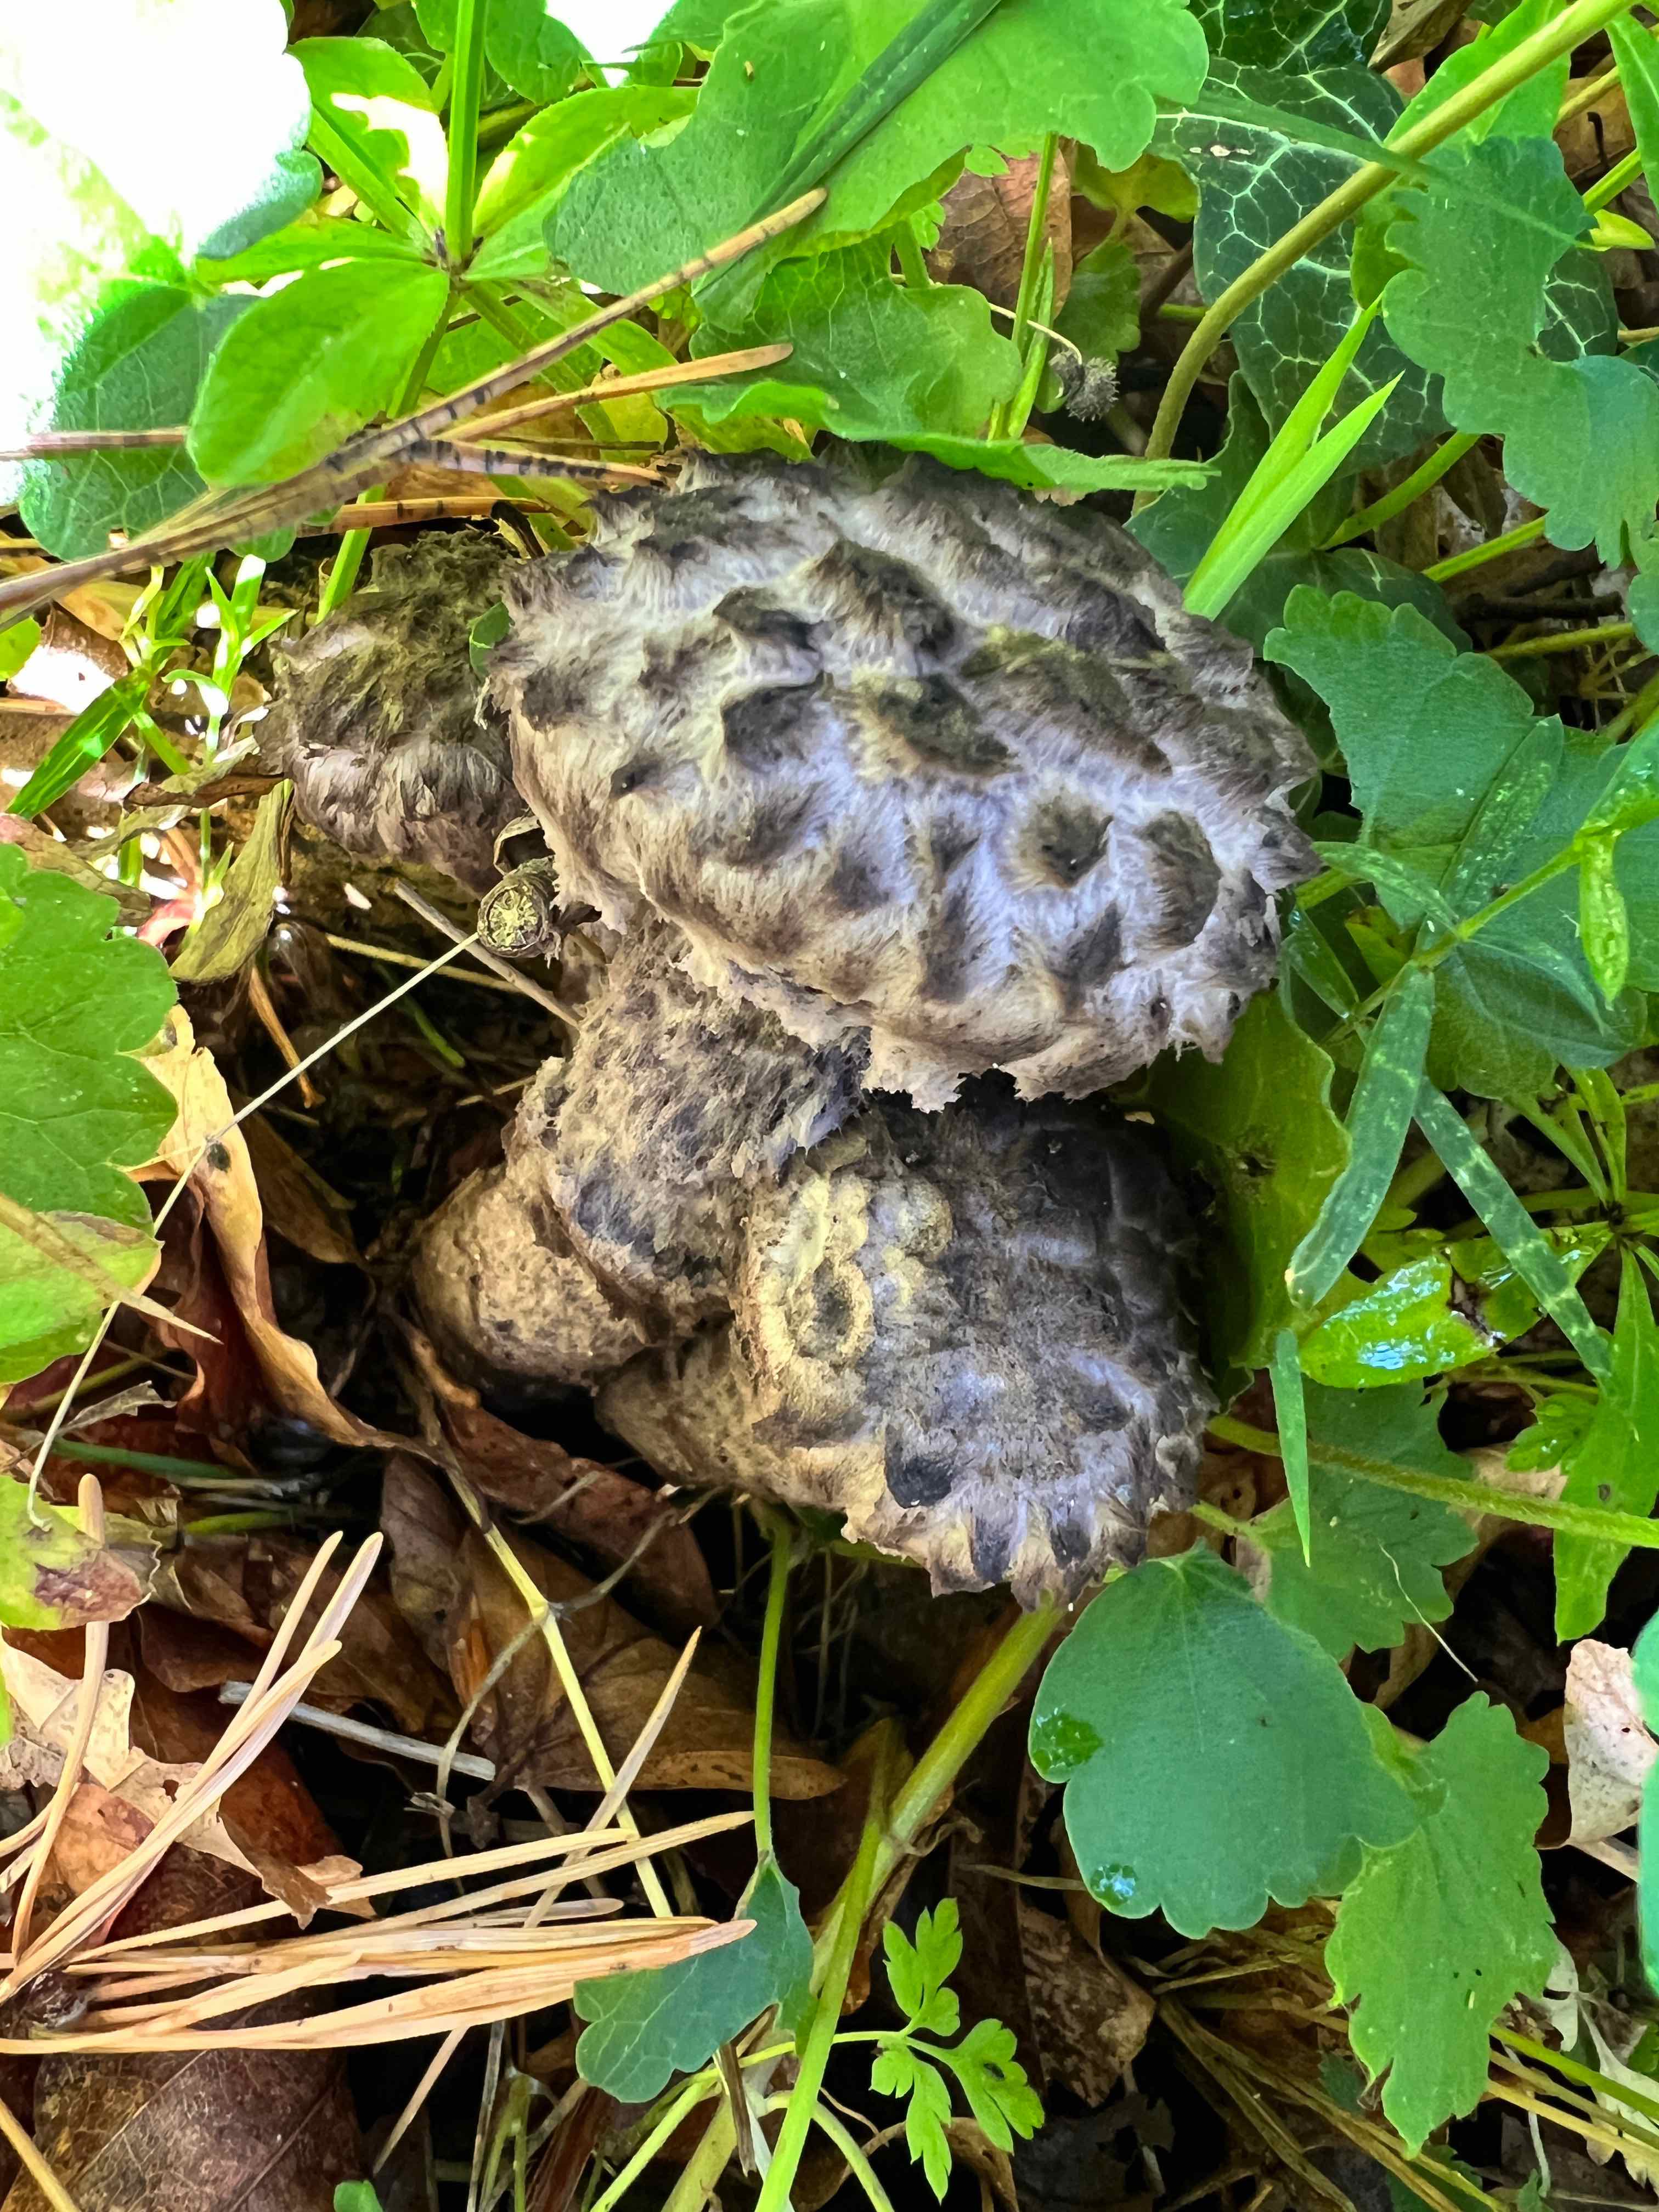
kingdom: Fungi
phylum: Basidiomycota
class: Agaricomycetes
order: Boletales
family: Boletaceae
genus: Strobilomyces
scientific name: Strobilomyces strobilaceus
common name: koglerørhat
